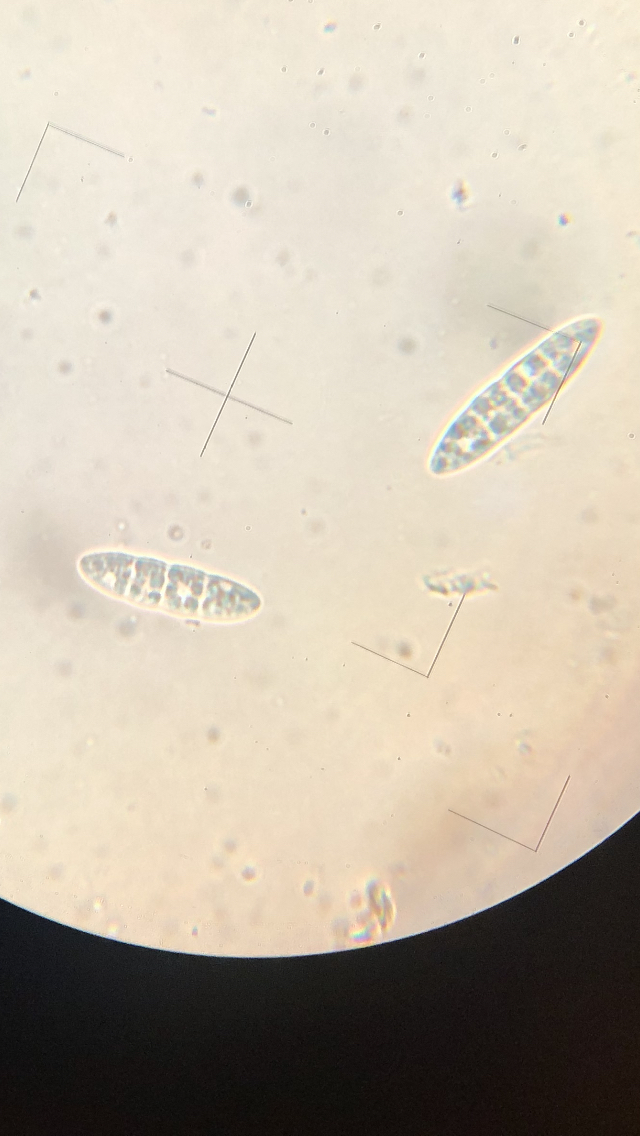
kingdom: Fungi
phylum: Ascomycota
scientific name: Ascomycota
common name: sæksvampe
